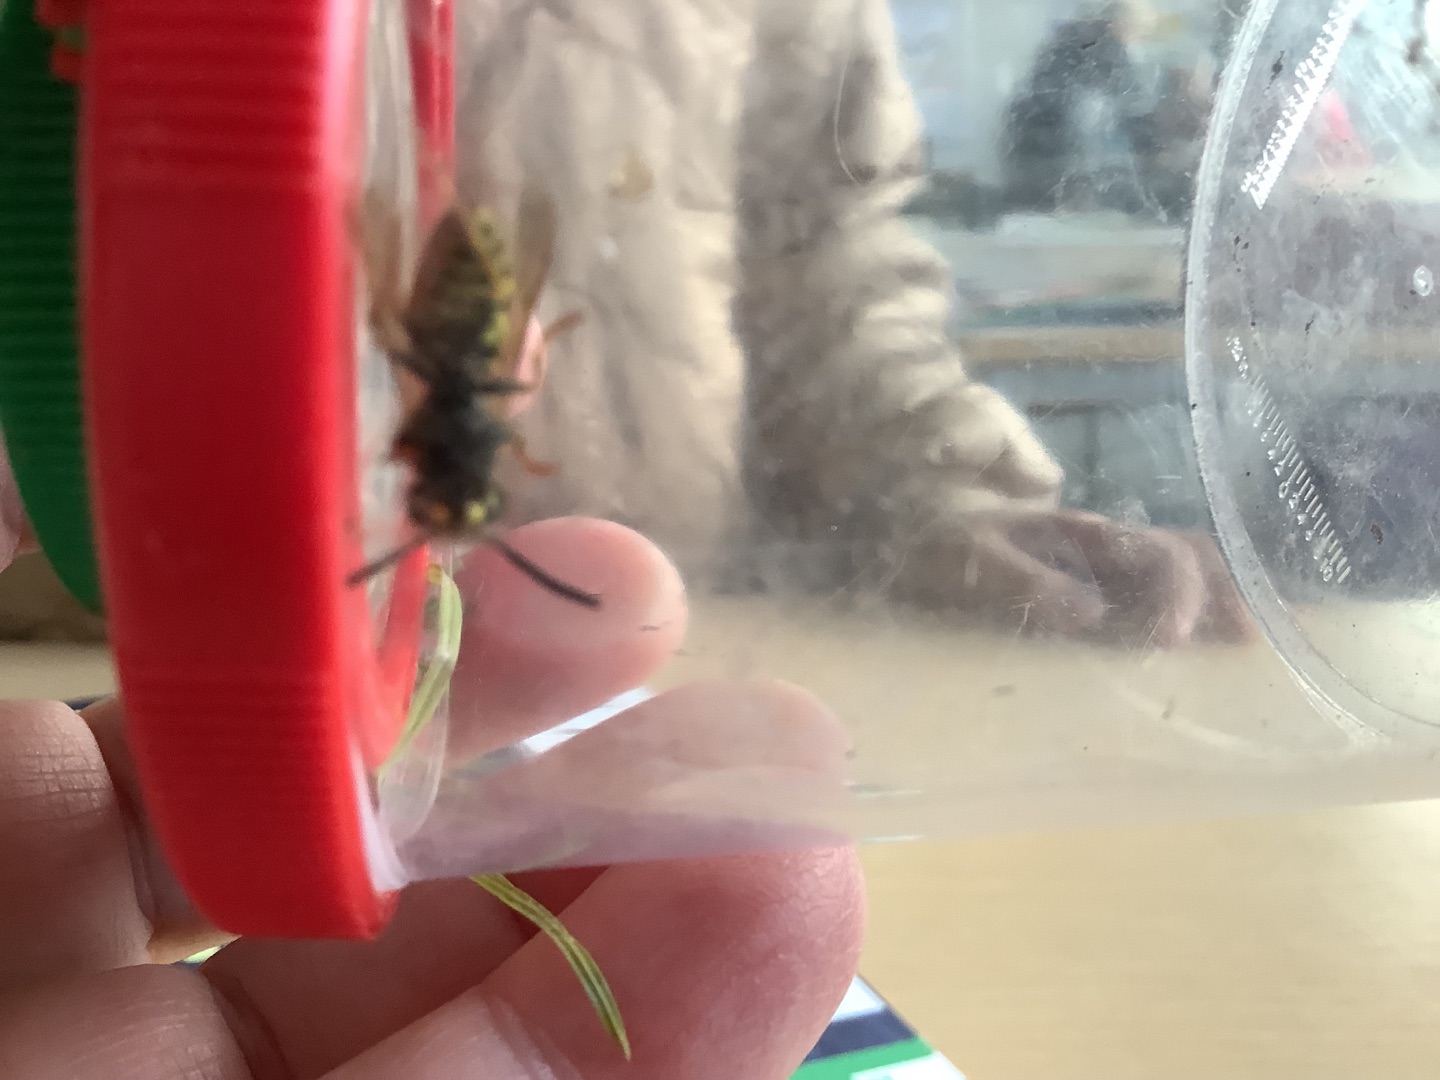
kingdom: Animalia
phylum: Arthropoda
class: Insecta
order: Hymenoptera
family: Vespidae
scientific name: Vespidae
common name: Gedehamse
